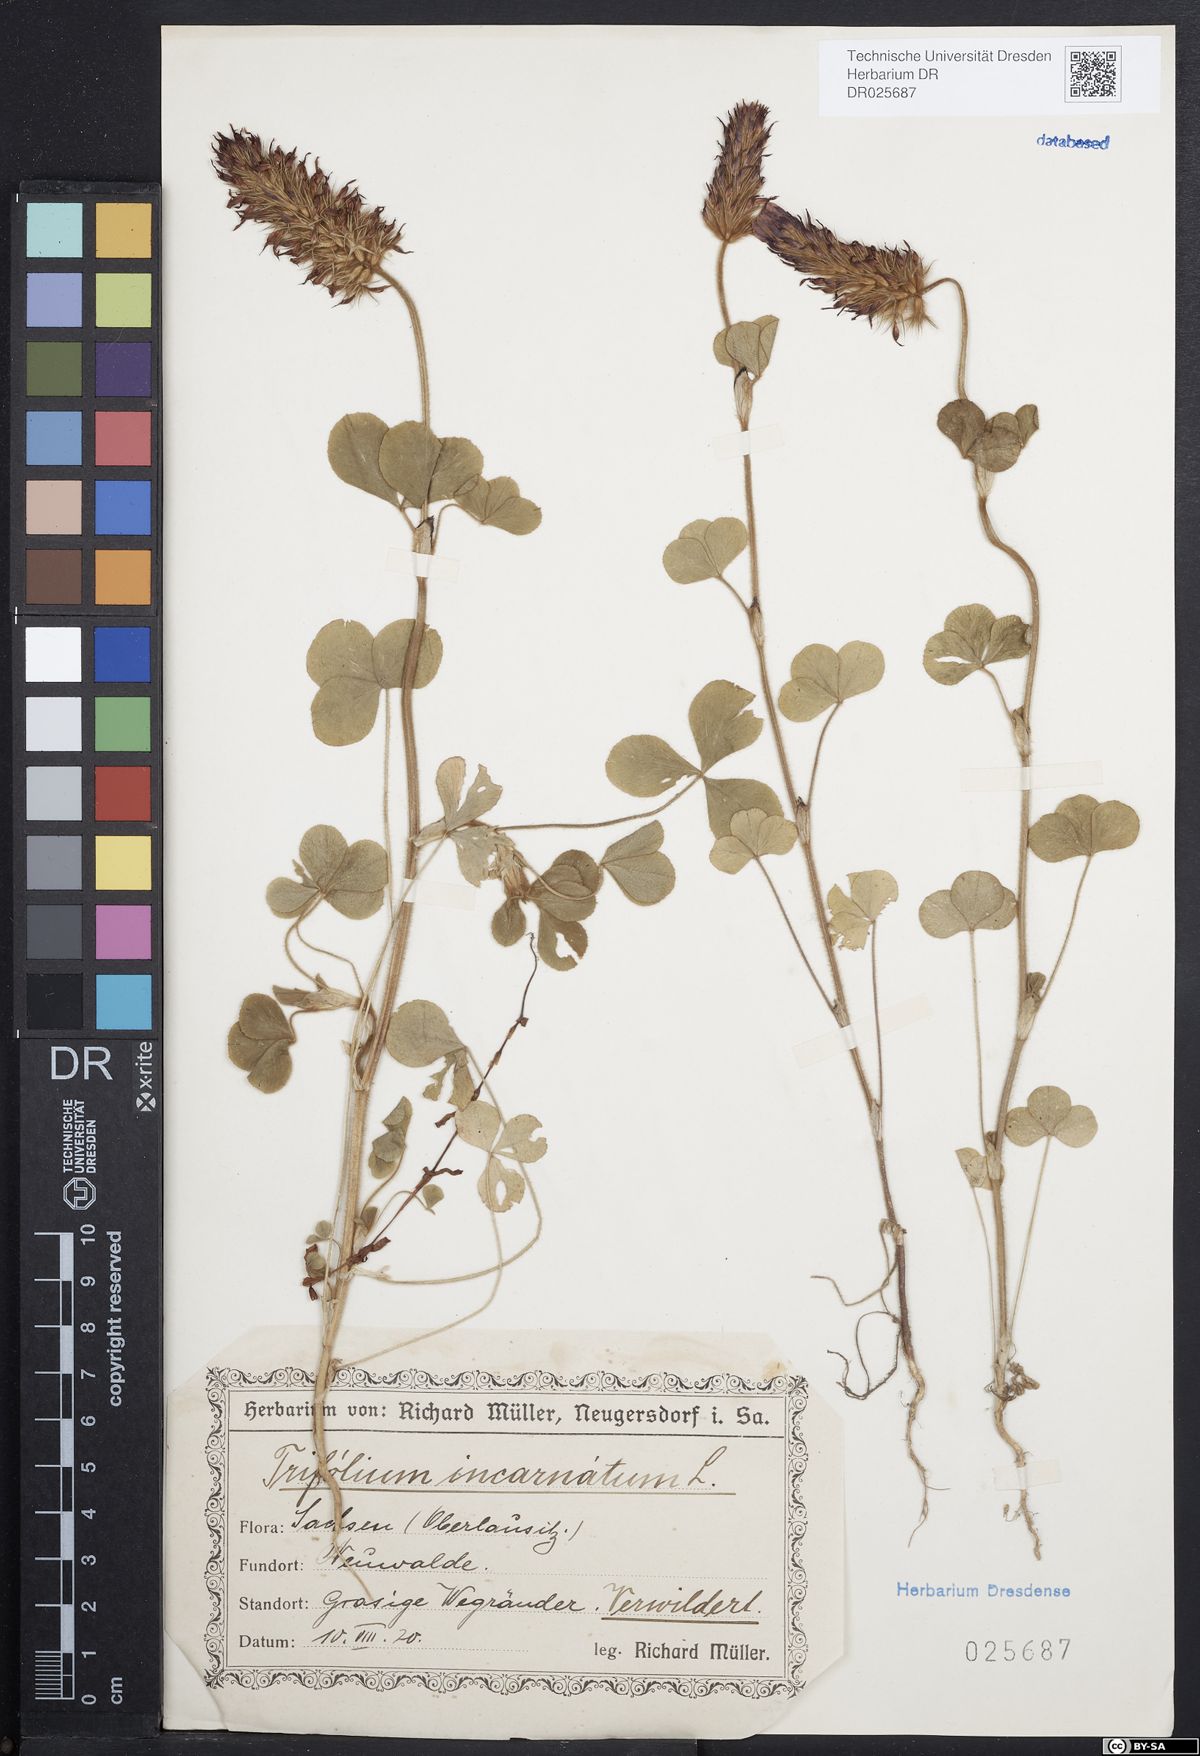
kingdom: Plantae
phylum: Tracheophyta
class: Magnoliopsida
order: Fabales
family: Fabaceae
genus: Trifolium
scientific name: Trifolium incarnatum
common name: Crimson clover
